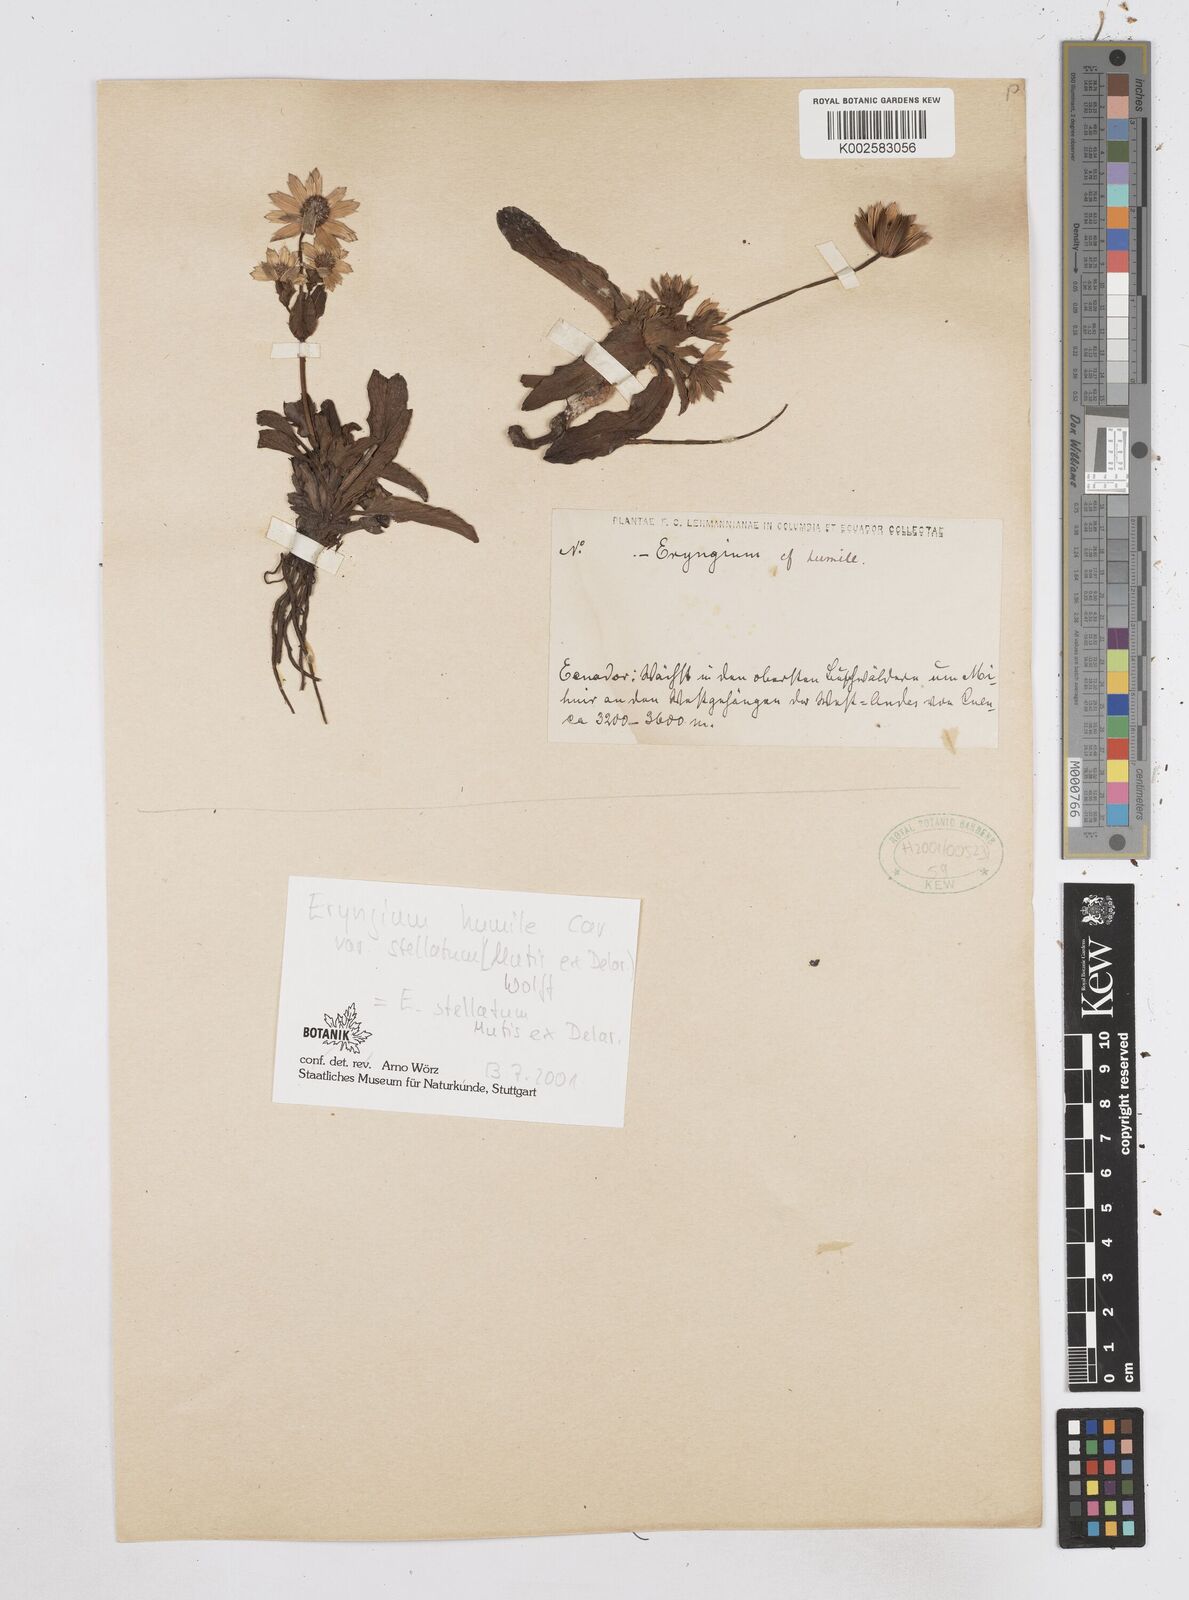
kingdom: Plantae
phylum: Tracheophyta
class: Magnoliopsida
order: Apiales
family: Apiaceae
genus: Eryngium
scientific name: Eryngium humile
